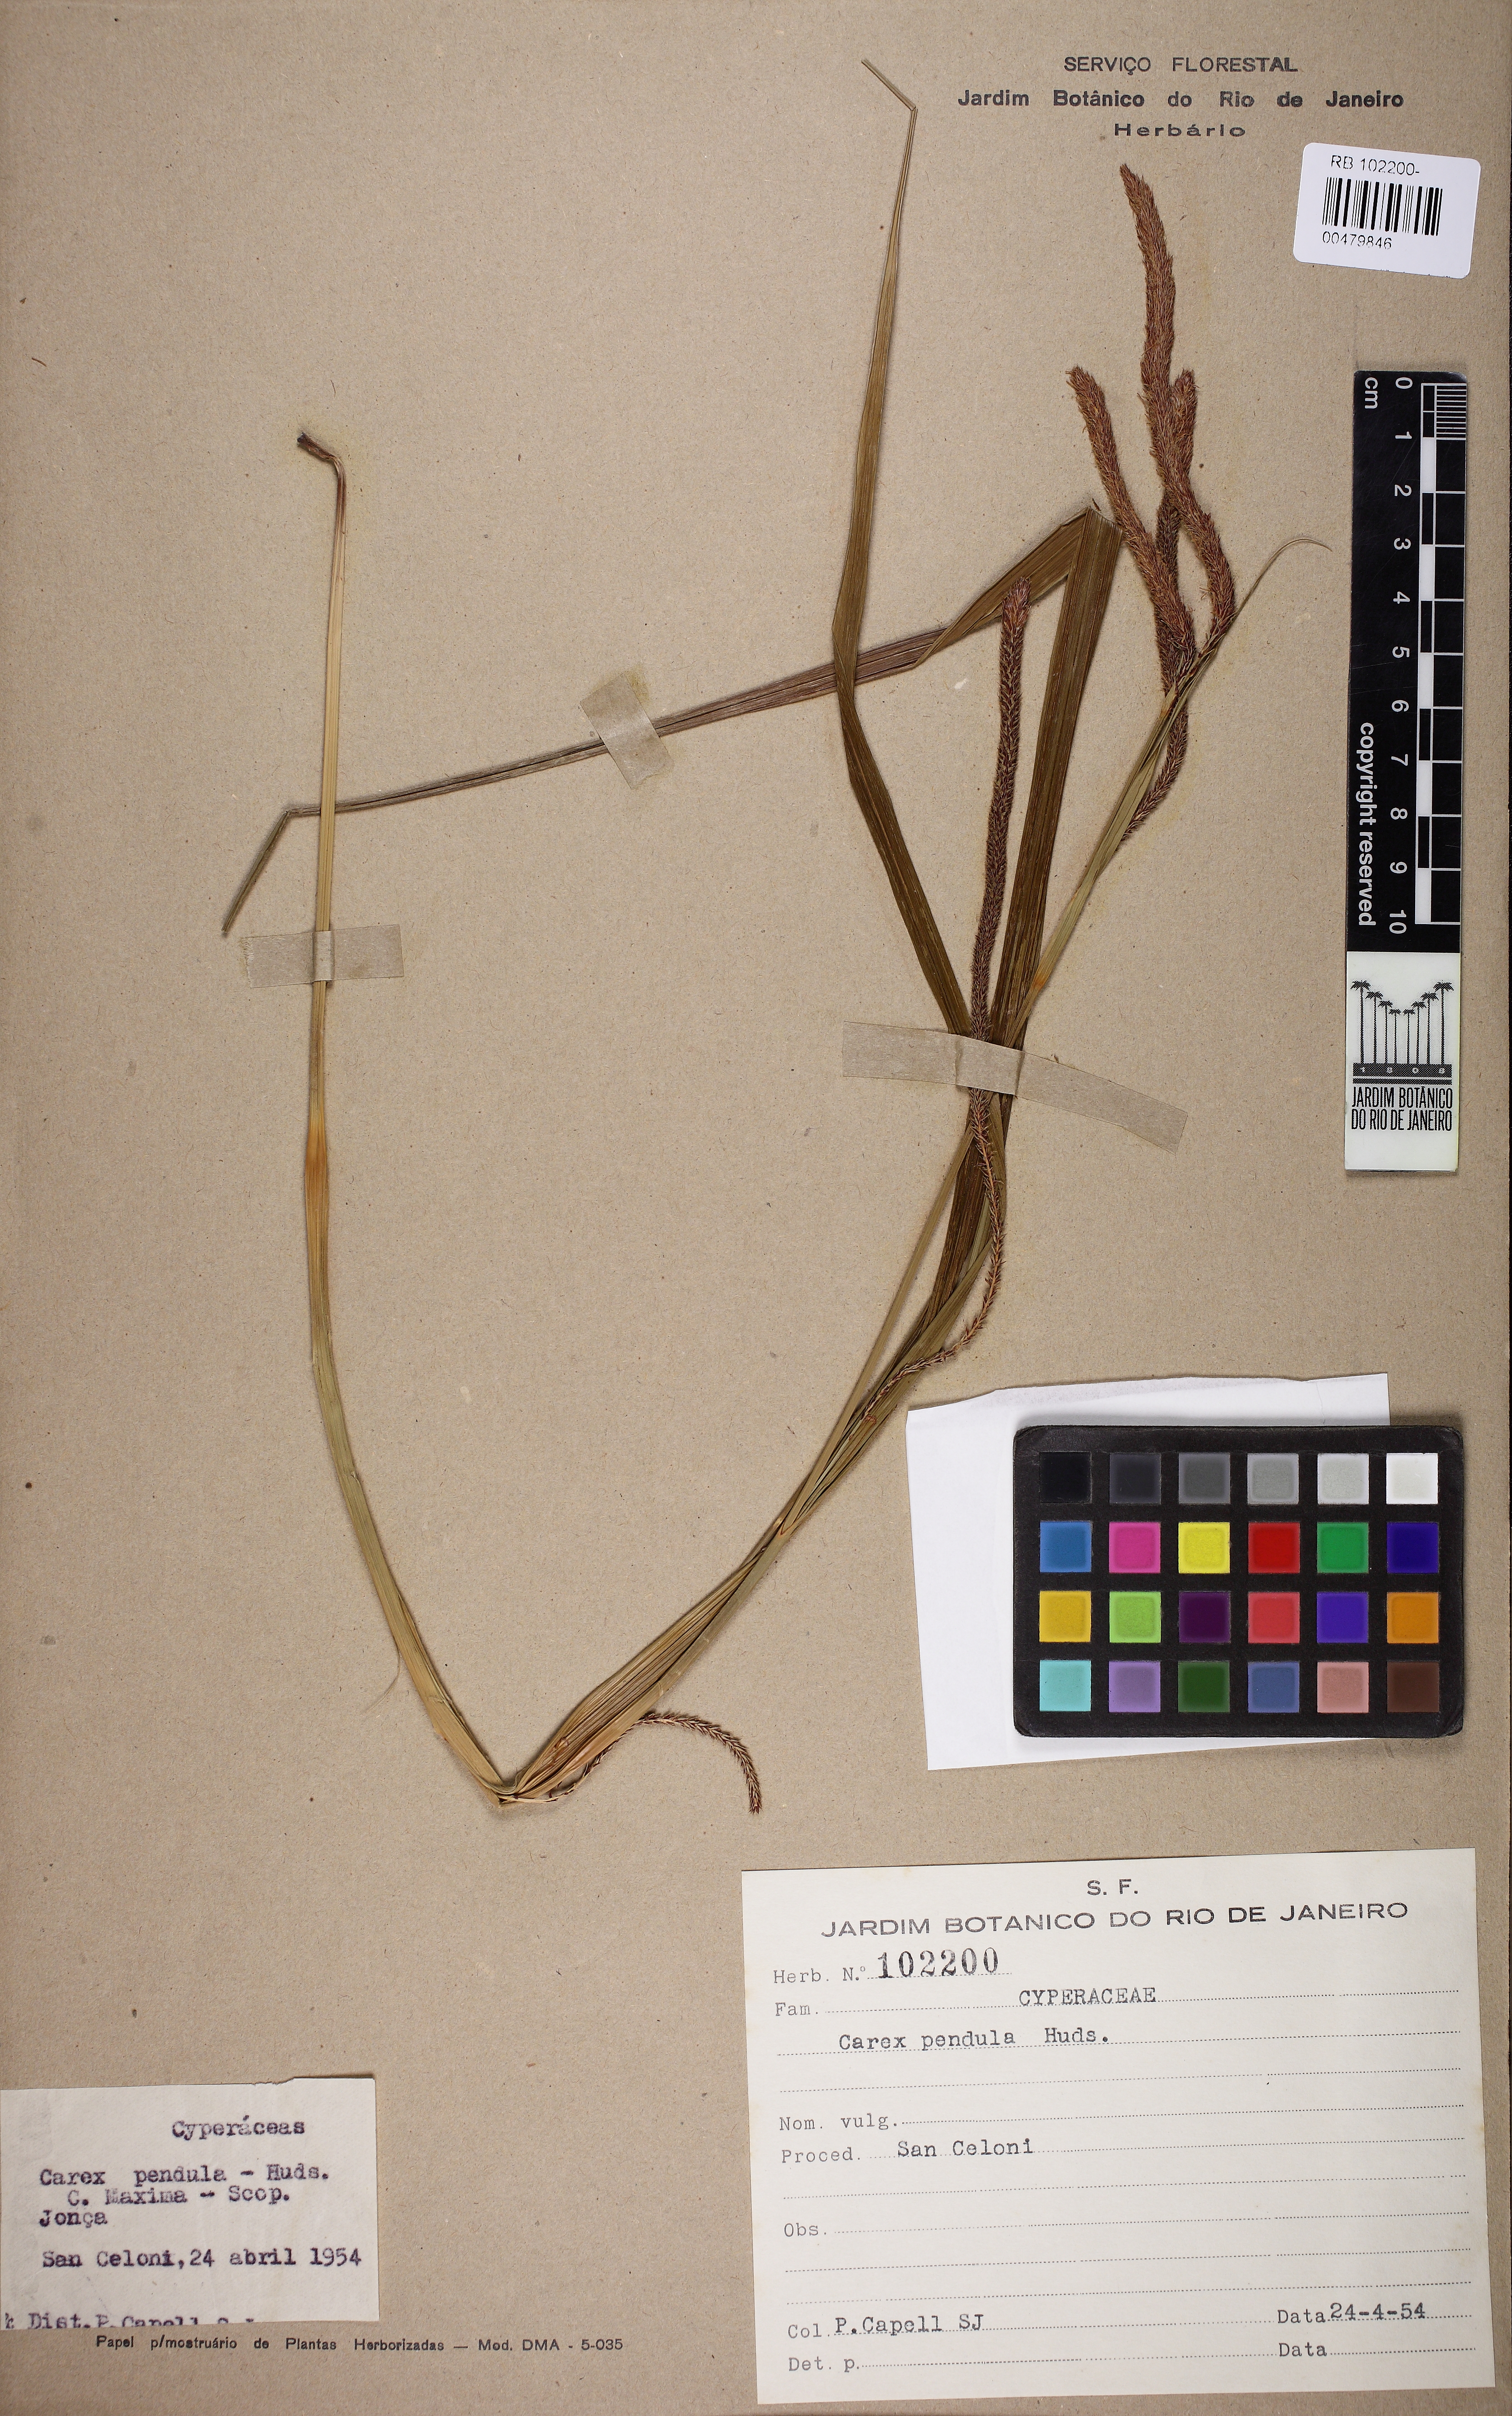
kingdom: Plantae
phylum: Tracheophyta
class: Liliopsida
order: Poales
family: Cyperaceae
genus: Carex
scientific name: Carex pendula
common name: Pendulous sedge
